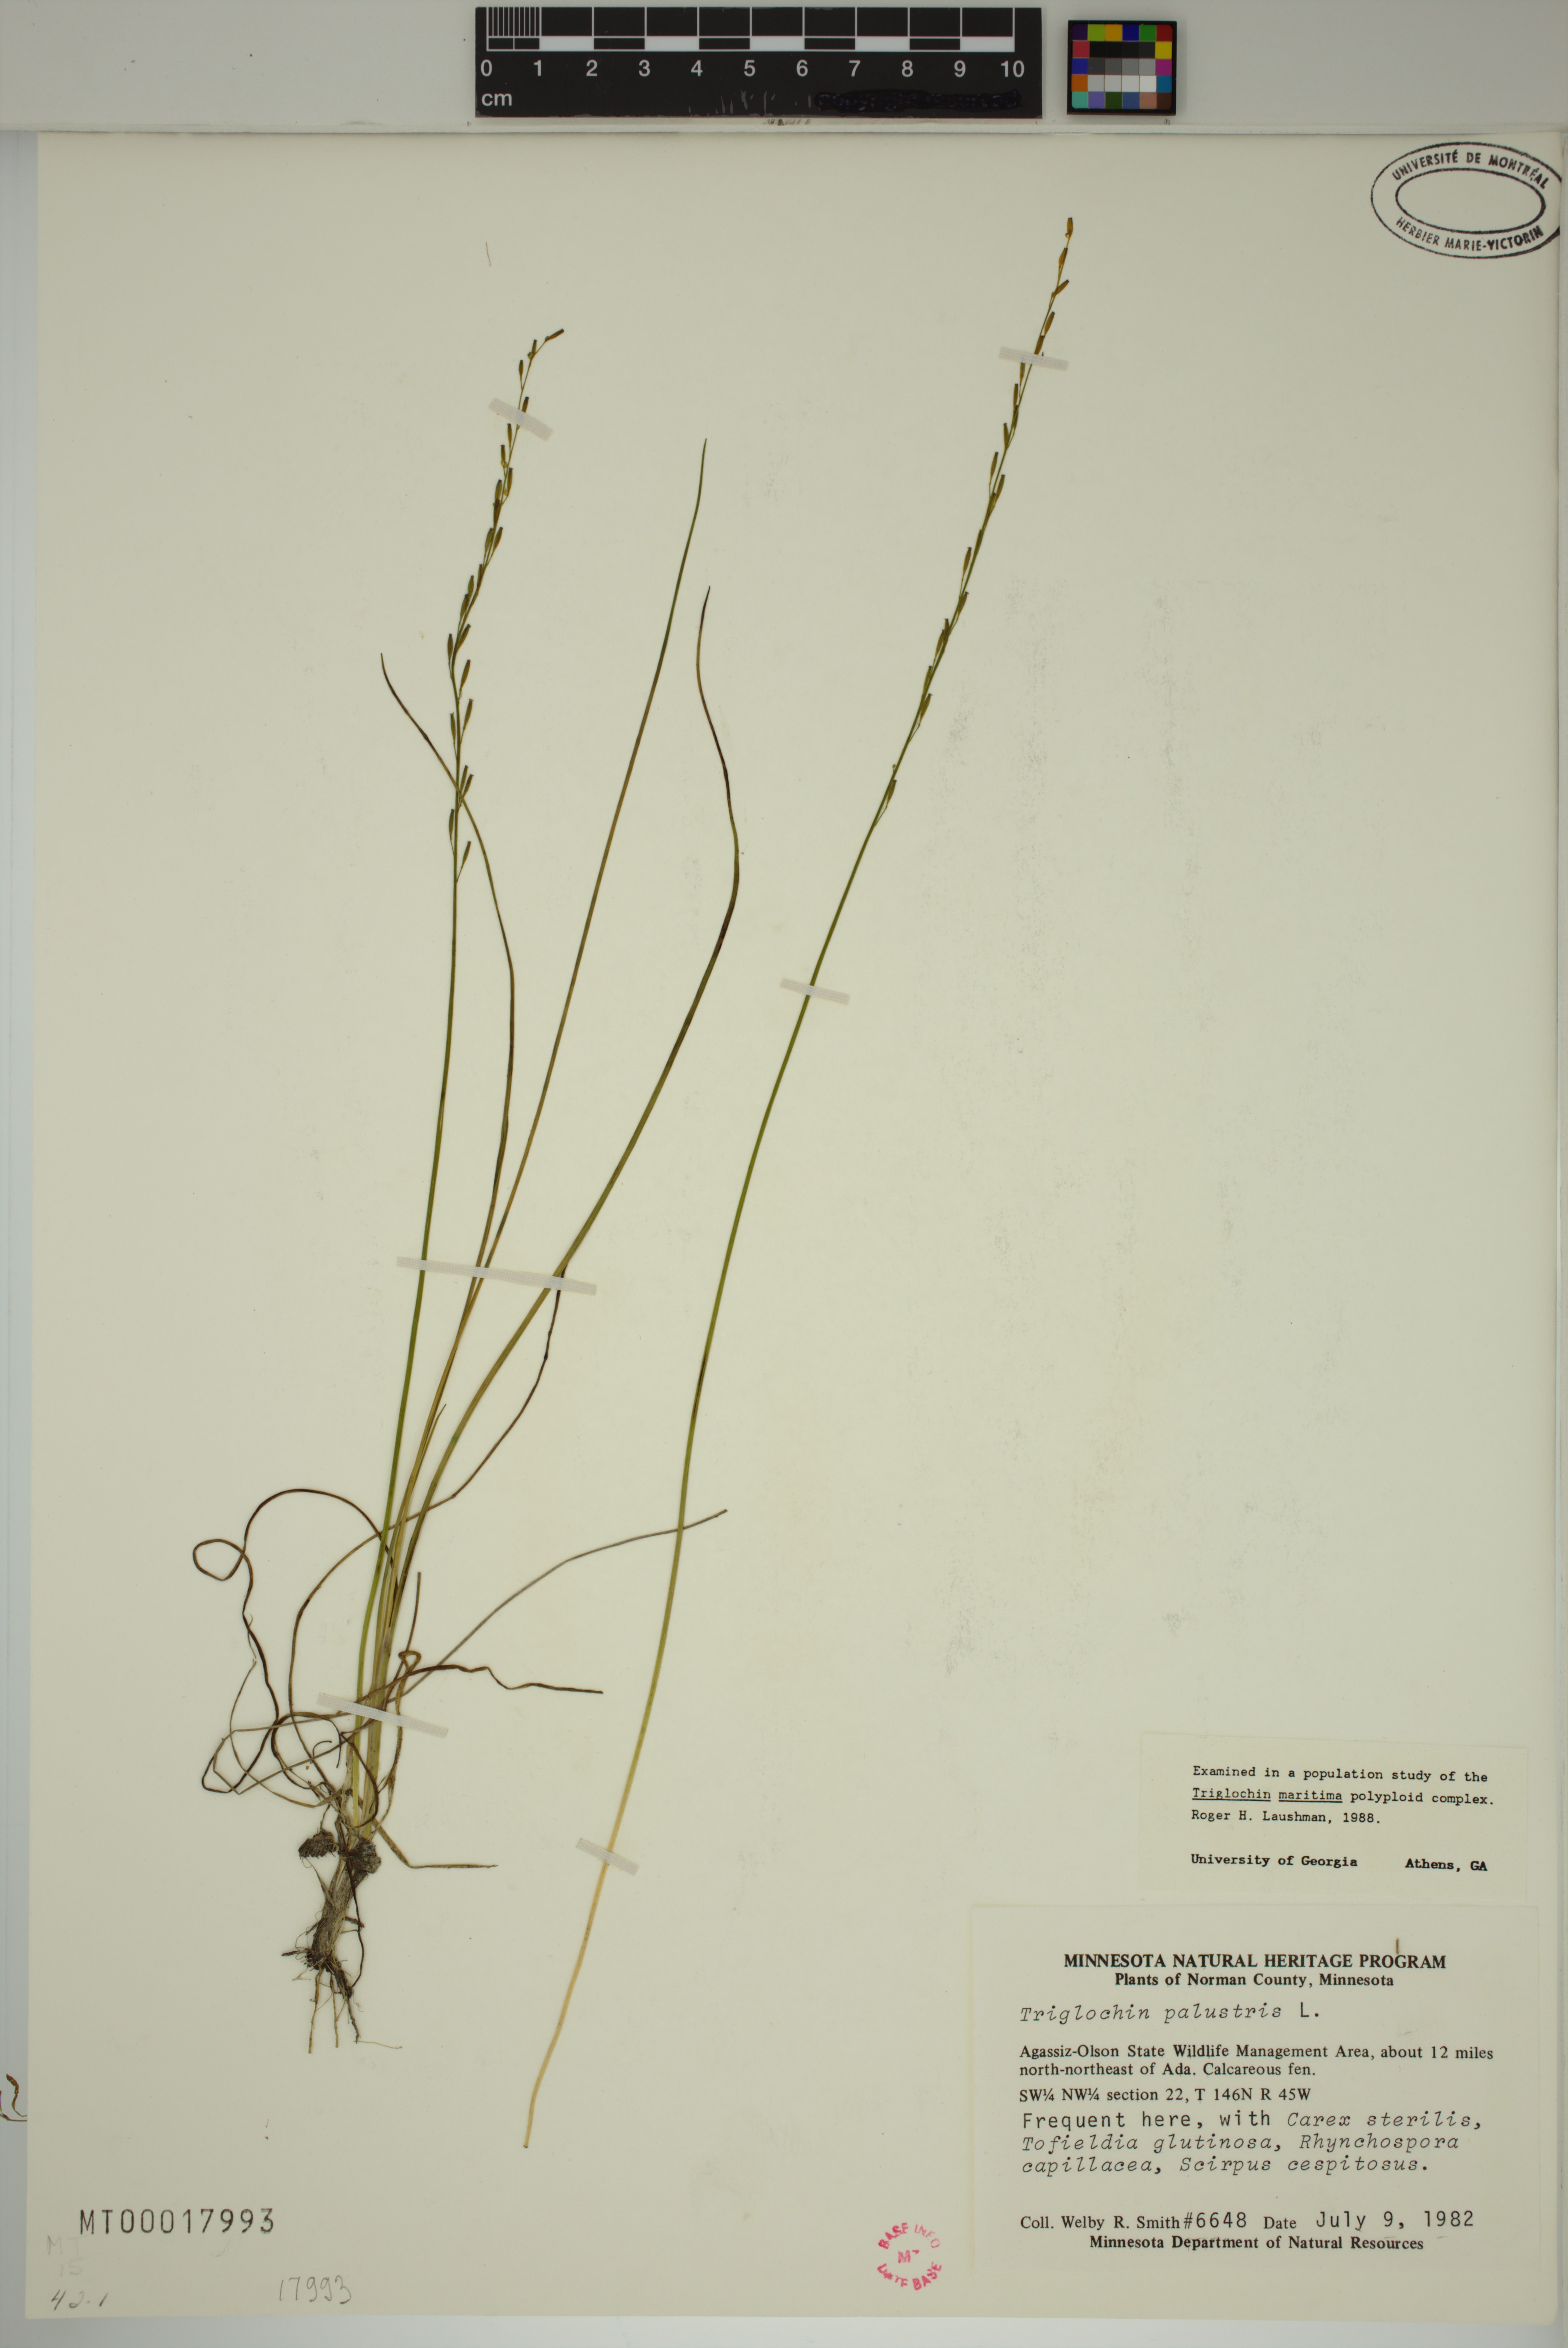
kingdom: Plantae
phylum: Tracheophyta
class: Liliopsida
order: Alismatales
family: Juncaginaceae
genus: Triglochin
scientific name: Triglochin palustris
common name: Marsh arrowgrass
